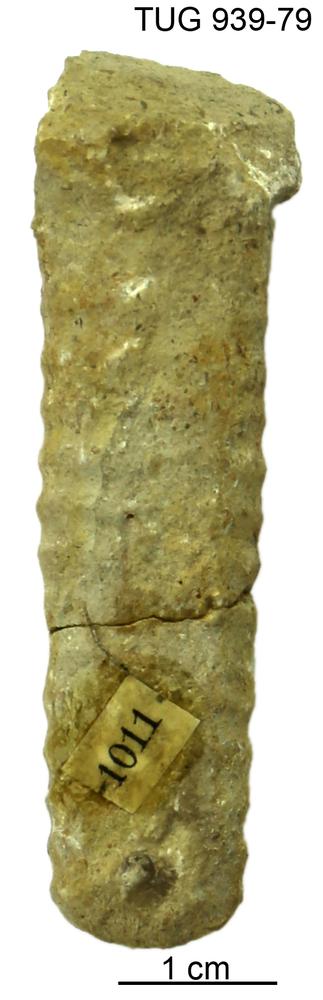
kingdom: Animalia
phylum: Mollusca
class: Cephalopoda
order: Orthocerida
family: Pseudorthoceratidae
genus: Spyroceras
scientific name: Spyroceras
